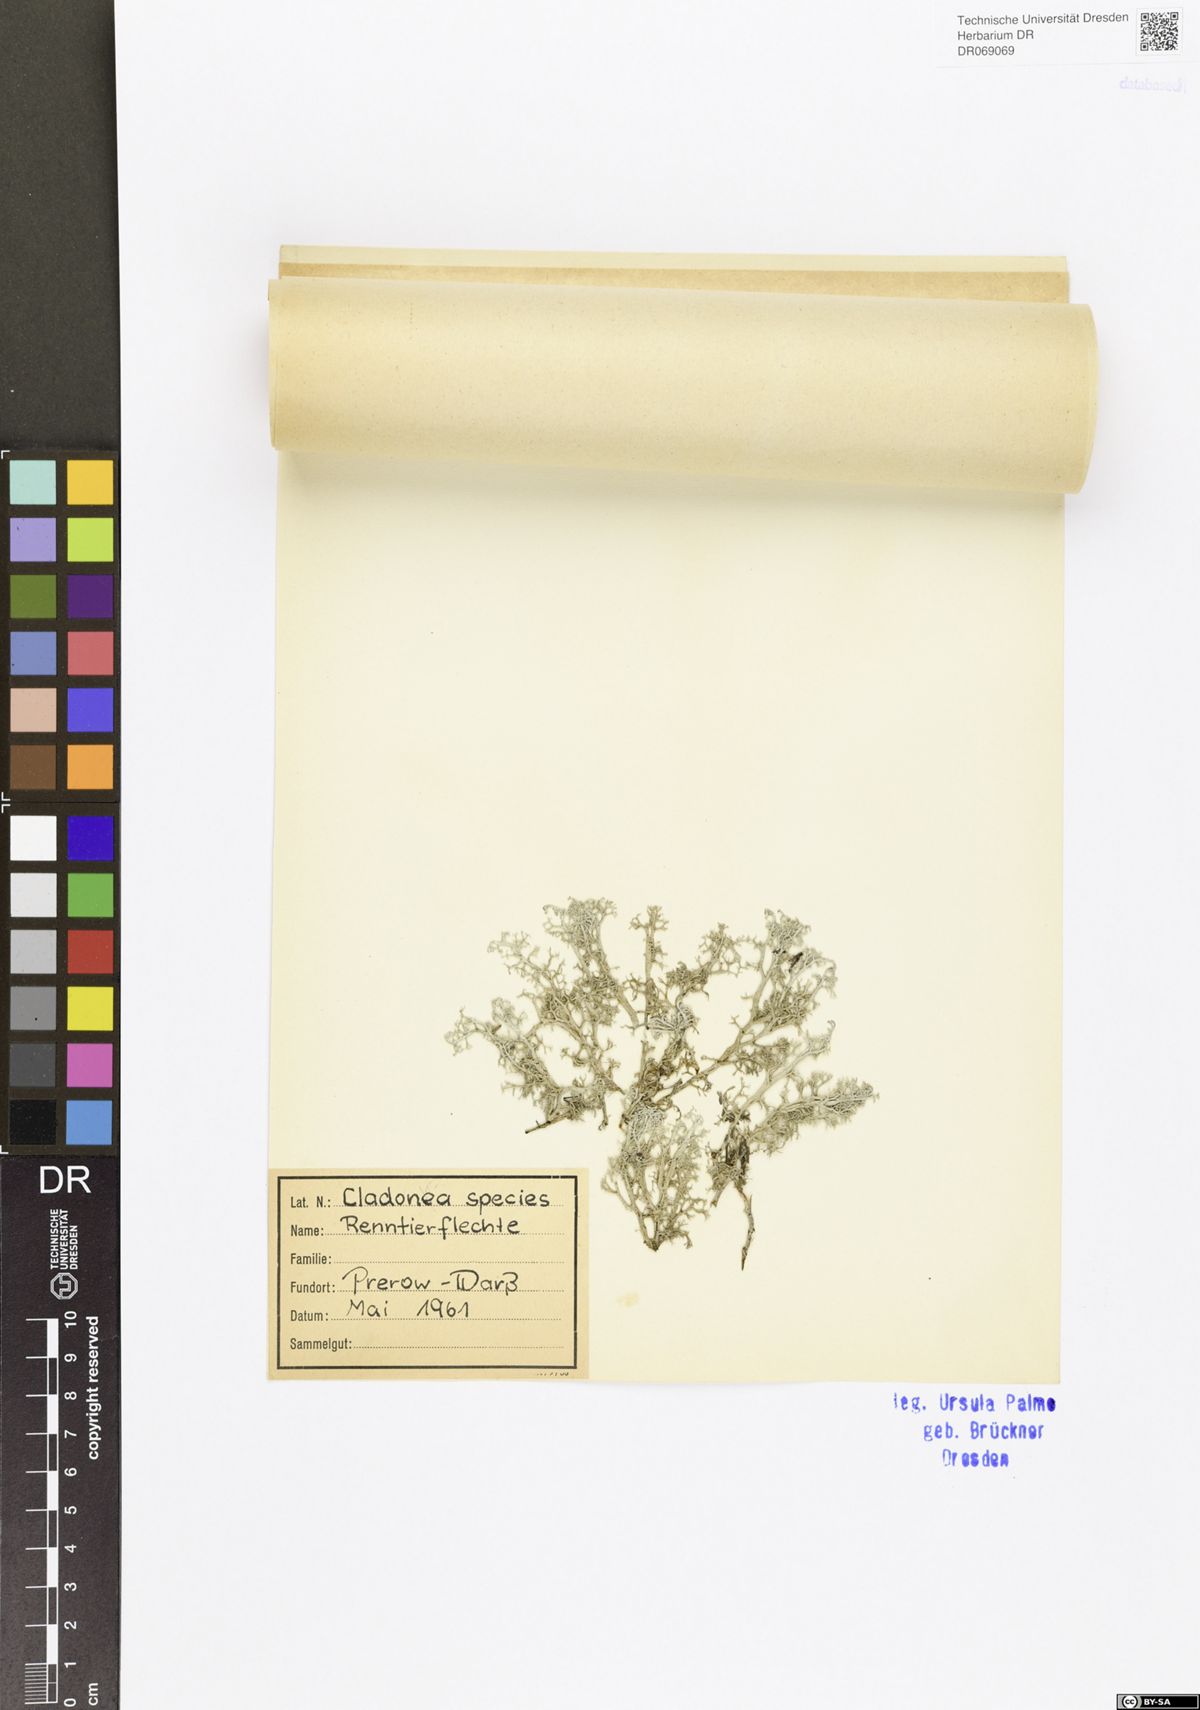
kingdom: Fungi
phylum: Ascomycota
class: Lecanoromycetes
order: Lecanorales
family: Cladoniaceae
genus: Cladonia
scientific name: Cladonia
